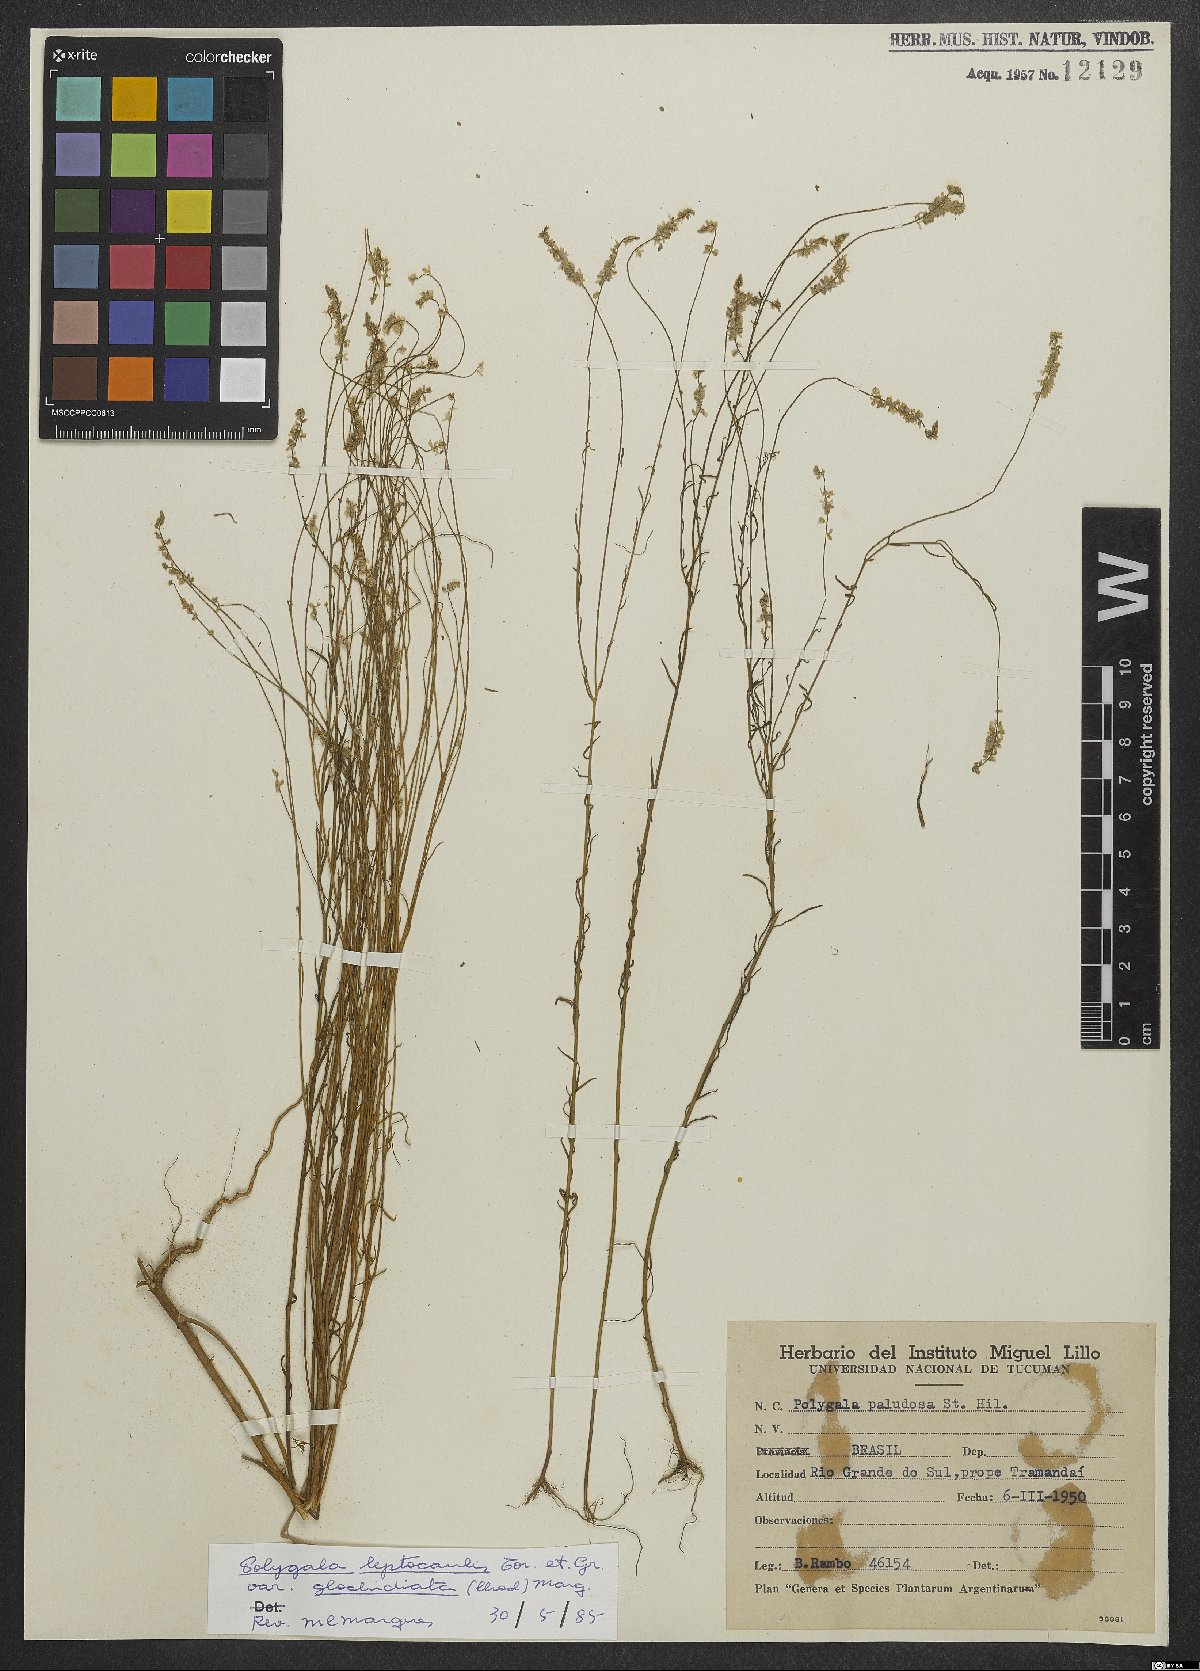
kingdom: Plantae
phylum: Tracheophyta
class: Magnoliopsida
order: Fabales
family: Polygalaceae
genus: Polygala
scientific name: Polygala tenella
